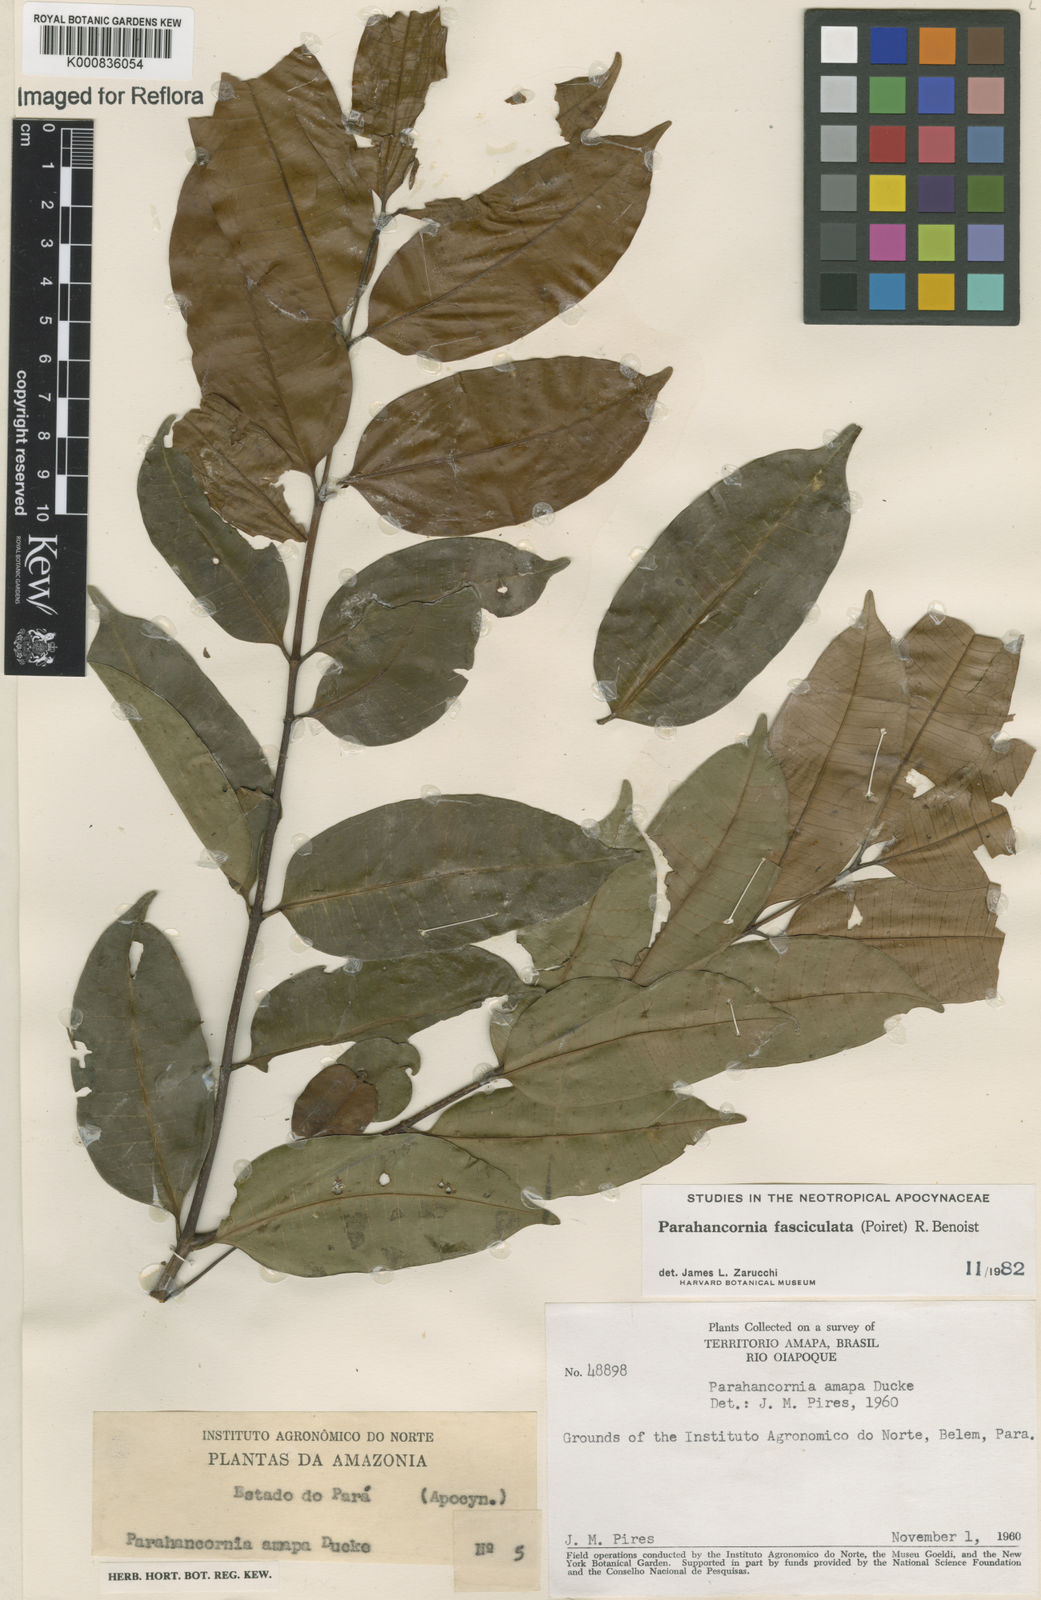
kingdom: Plantae
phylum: Tracheophyta
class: Magnoliopsida
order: Gentianales
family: Apocynaceae
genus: Parahancornia
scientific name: Parahancornia fasciculata
